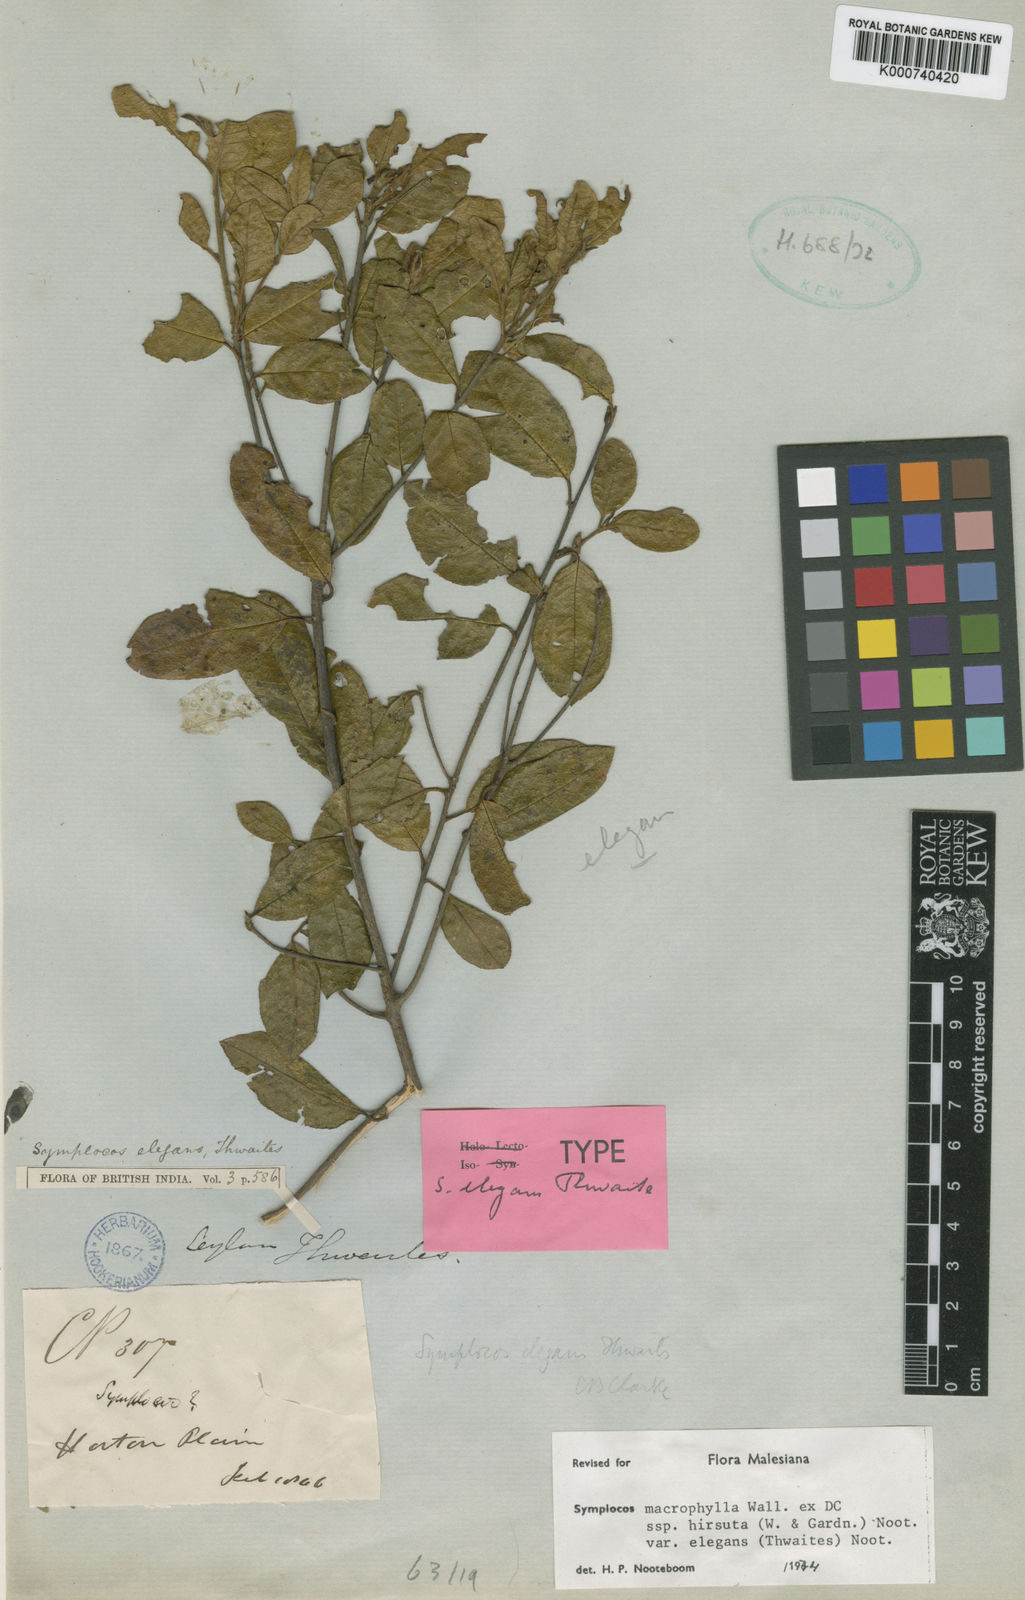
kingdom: Plantae
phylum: Tracheophyta
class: Magnoliopsida
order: Ericales
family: Symplocaceae
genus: Symplocos
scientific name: Symplocos macrophylla
